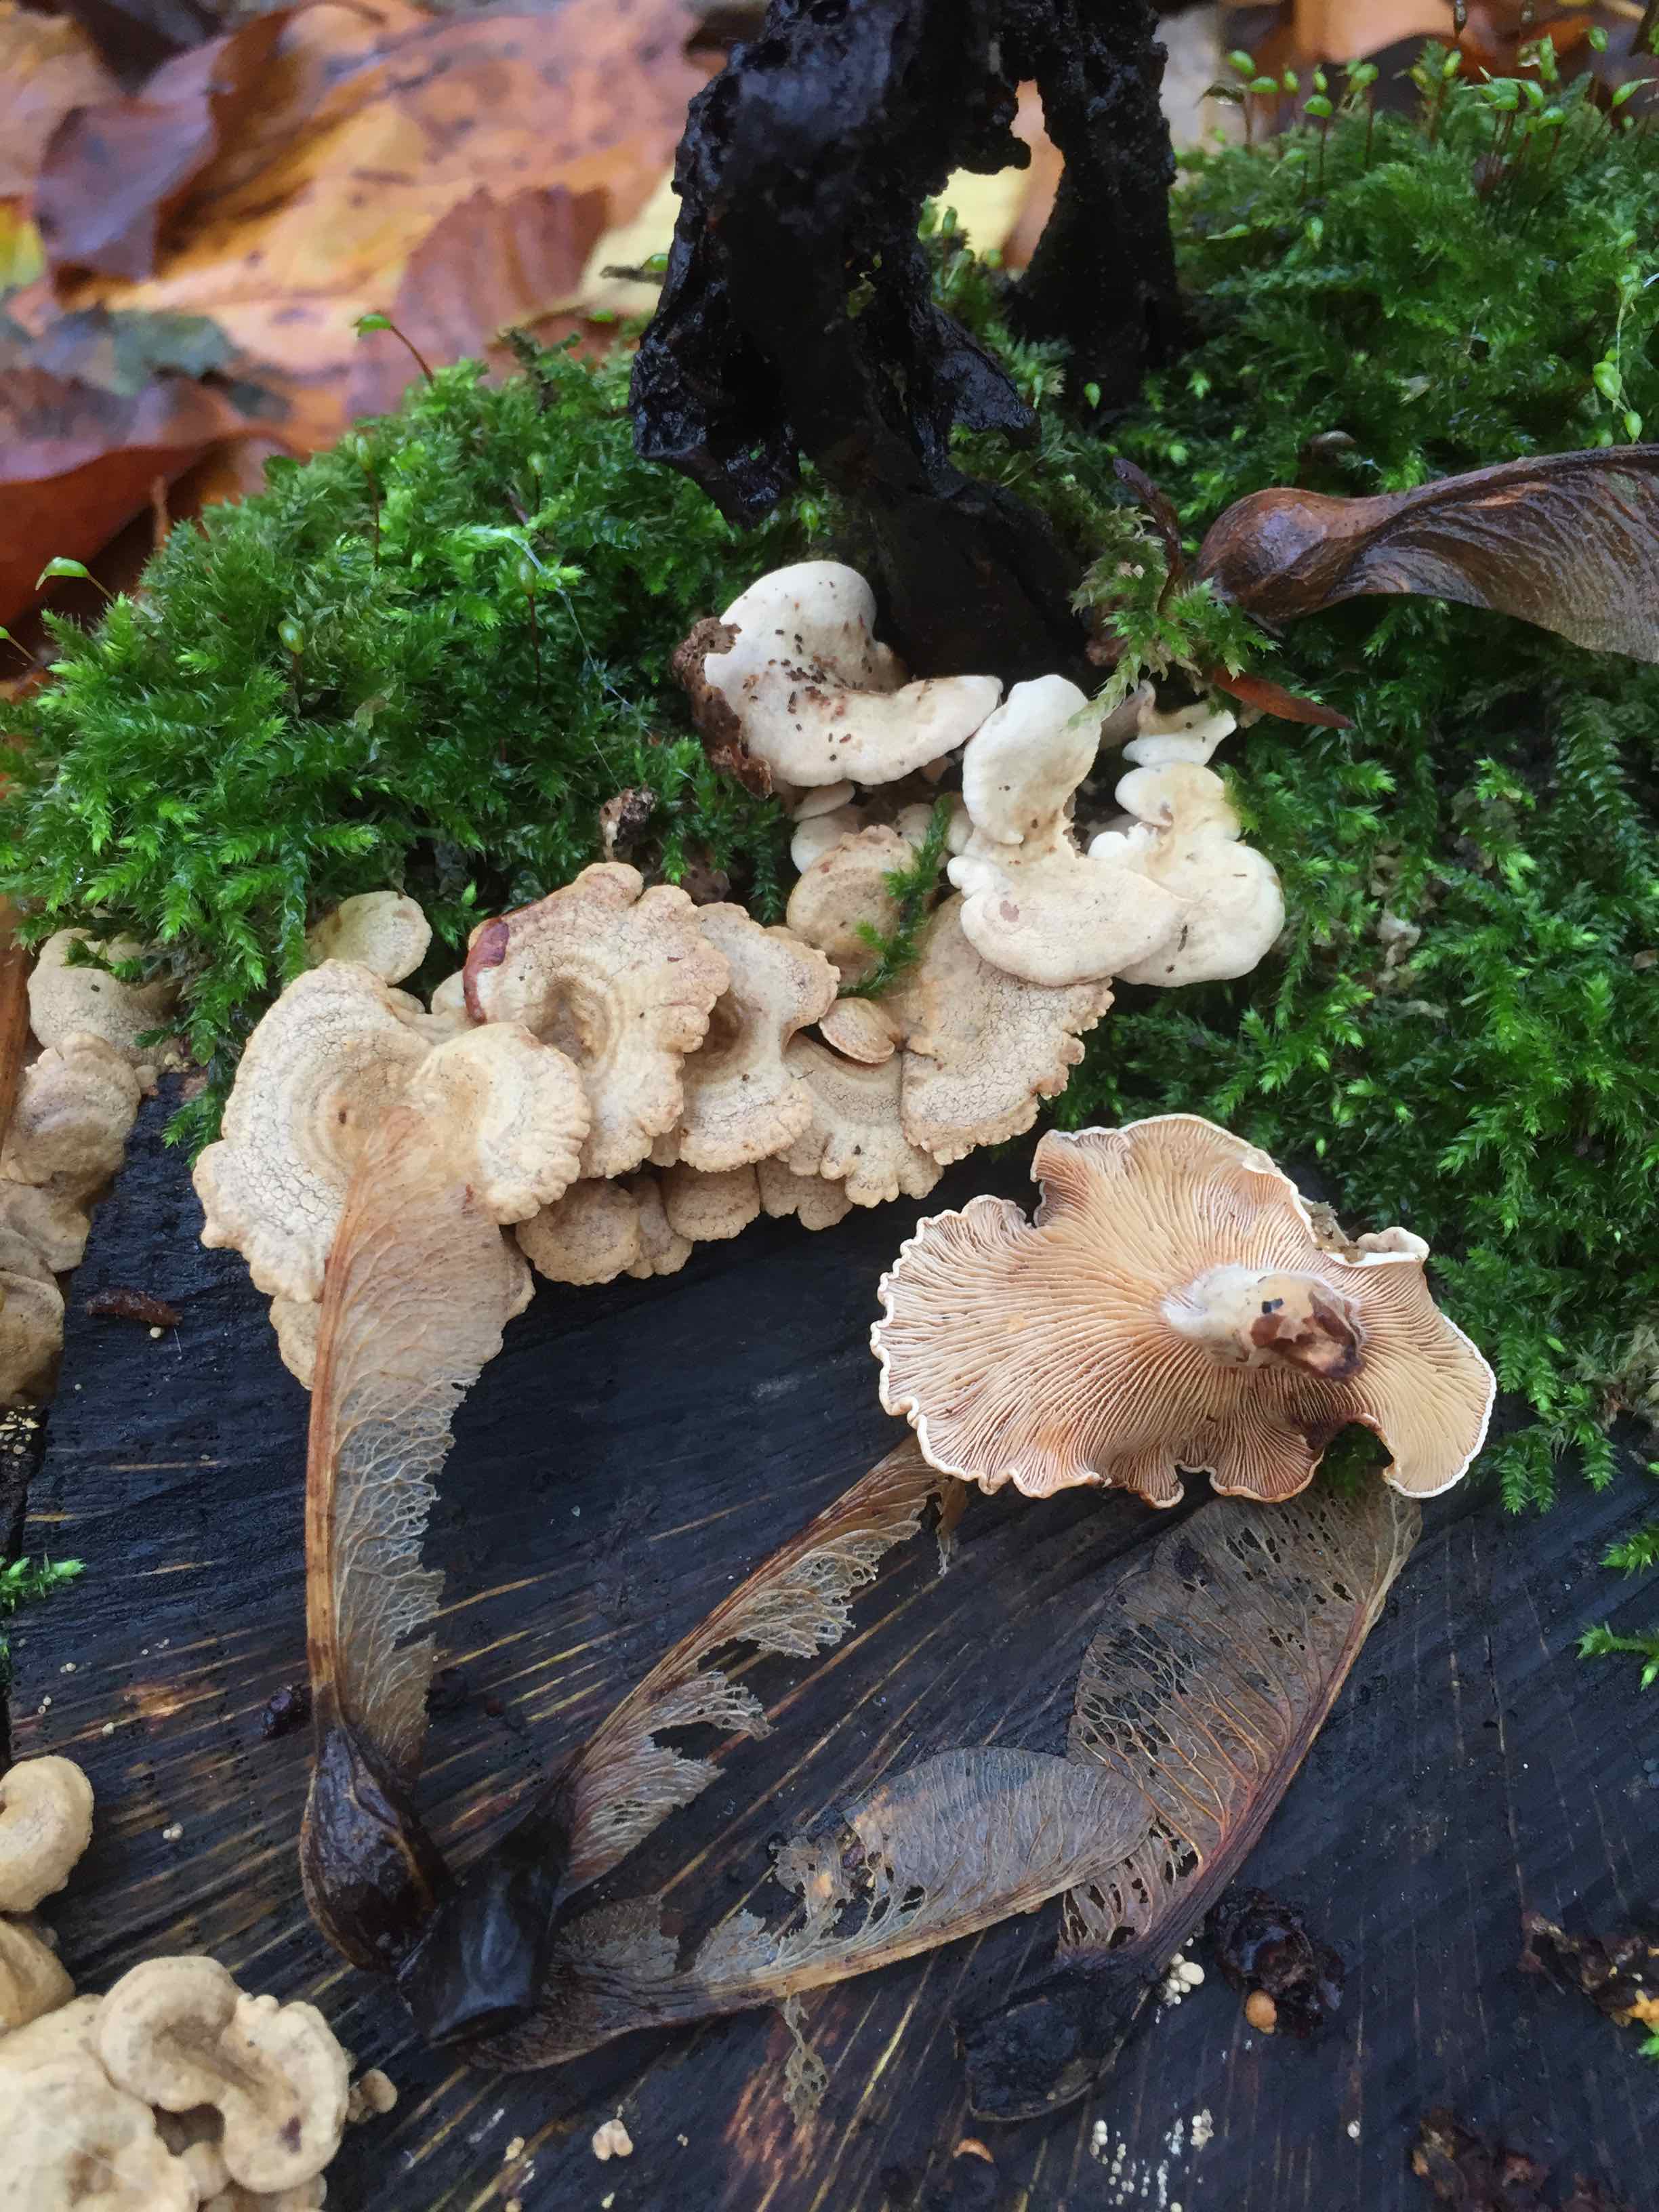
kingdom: Fungi
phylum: Basidiomycota
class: Agaricomycetes
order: Agaricales
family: Mycenaceae
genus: Panellus
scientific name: Panellus stipticus
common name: kliddet epaulethat
